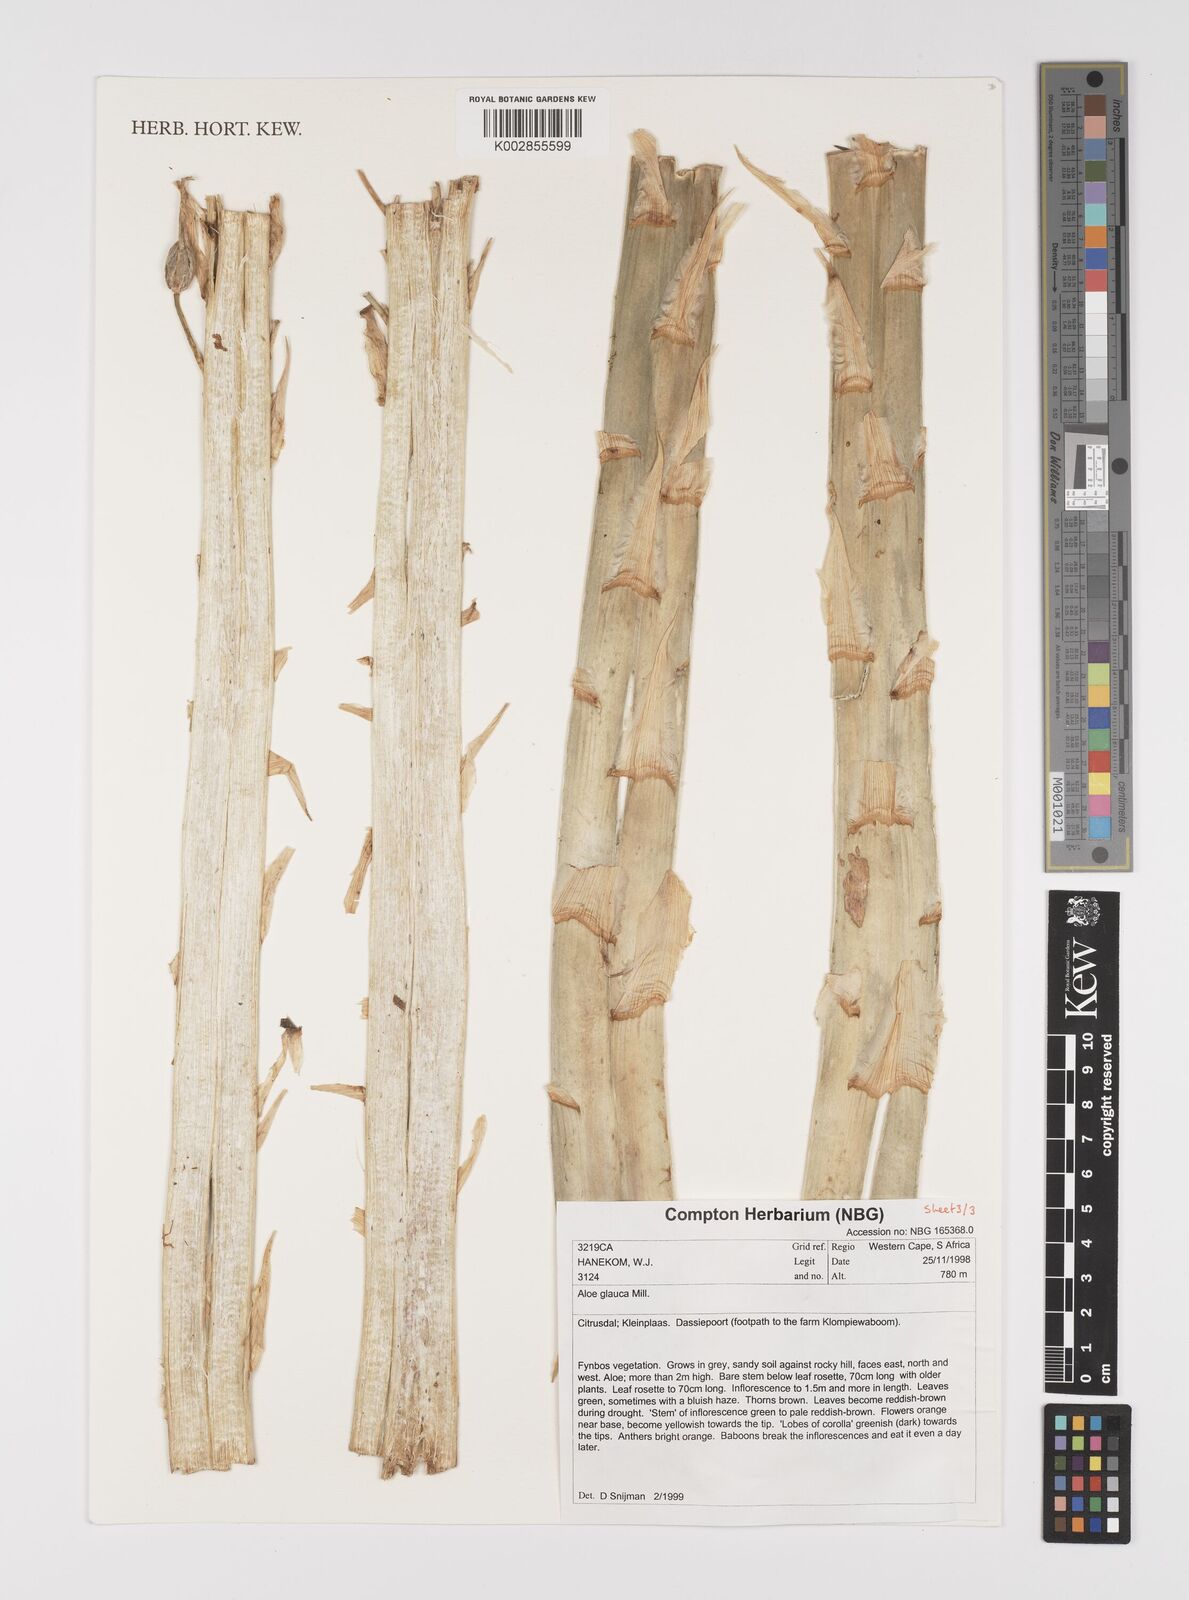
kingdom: Plantae
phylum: Tracheophyta
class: Liliopsida
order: Asparagales
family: Asphodelaceae
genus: Aloe
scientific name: Aloe glauca
